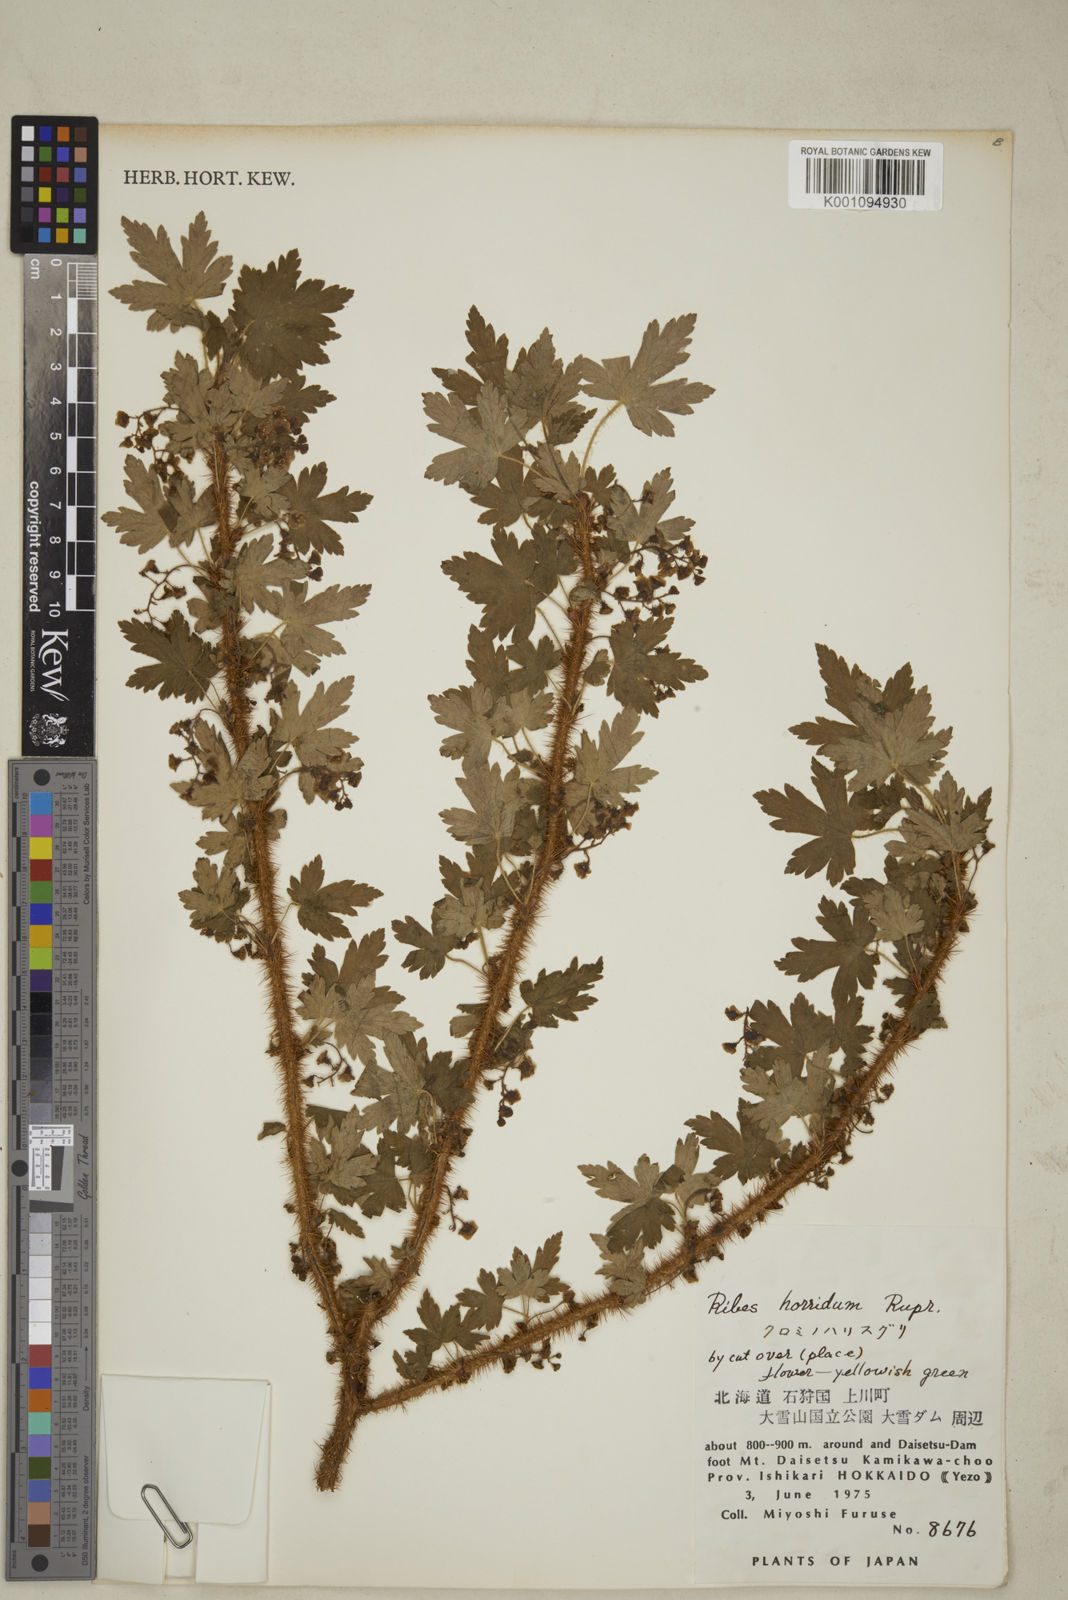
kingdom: Plantae
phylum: Tracheophyta
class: Magnoliopsida
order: Saxifragales
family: Grossulariaceae
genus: Ribes
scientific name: Ribes horridum
